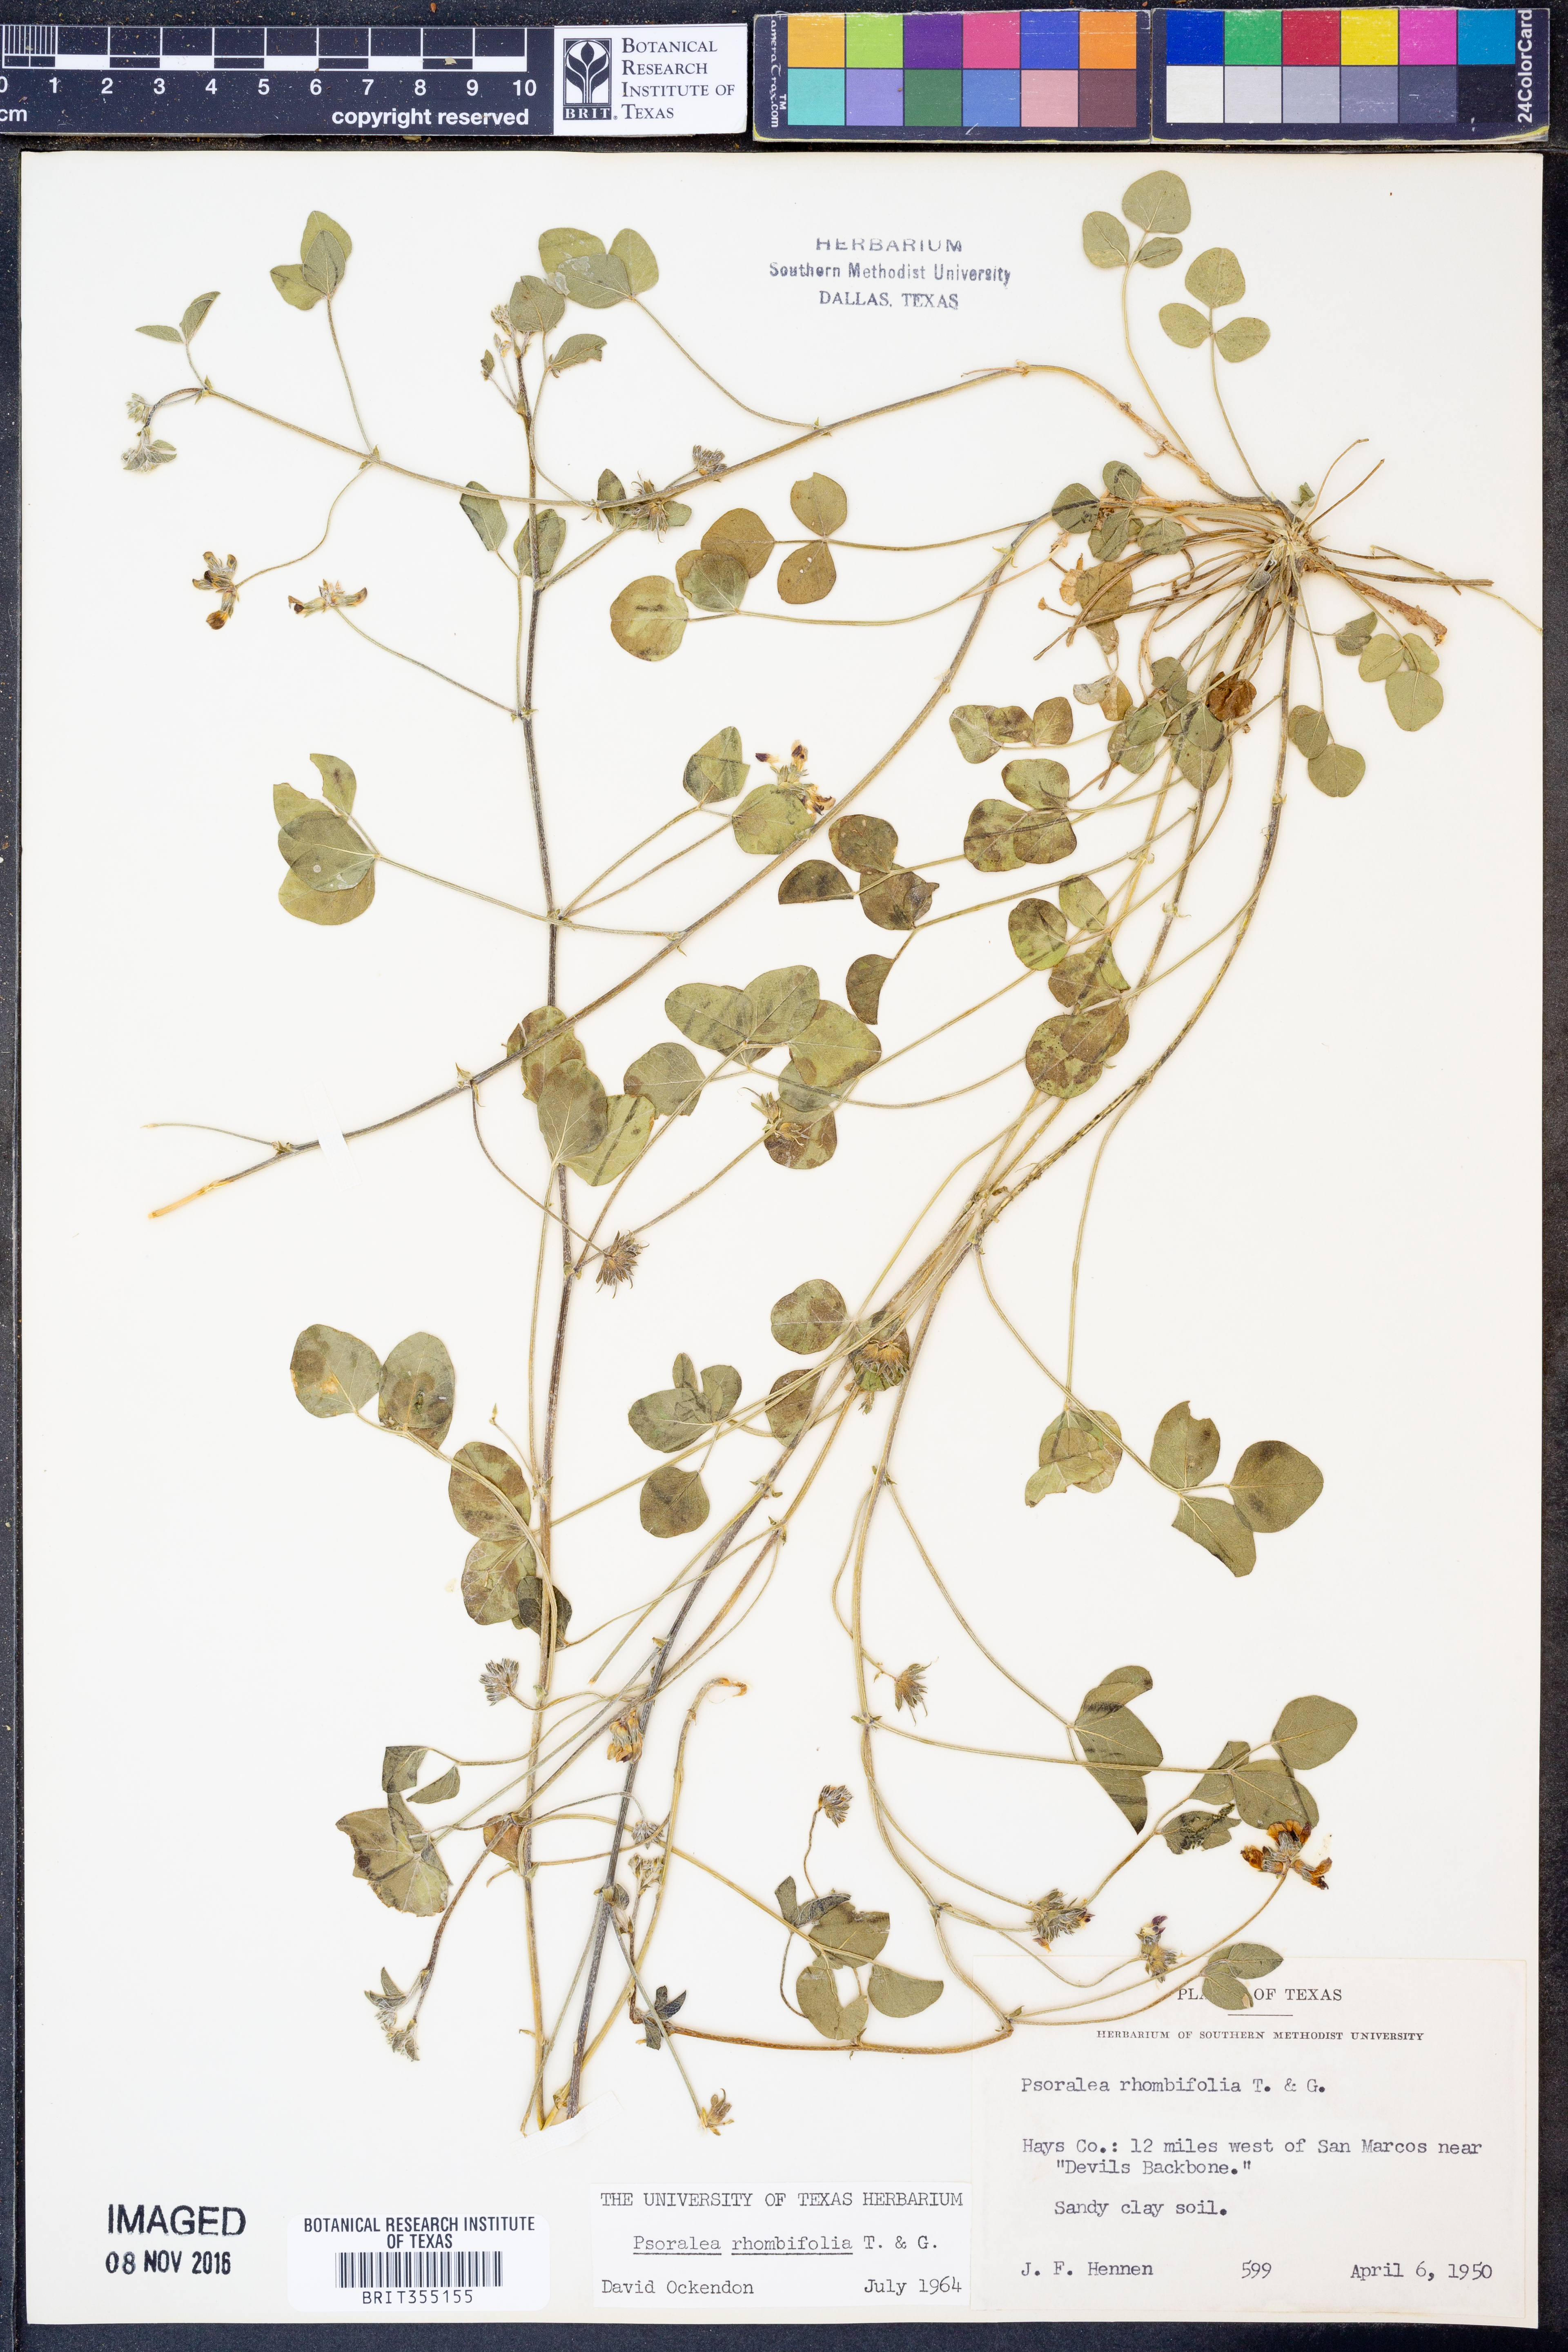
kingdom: Plantae
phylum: Tracheophyta
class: Magnoliopsida
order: Fabales
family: Fabaceae
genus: Pediomelum
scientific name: Pediomelum rhombifolium
